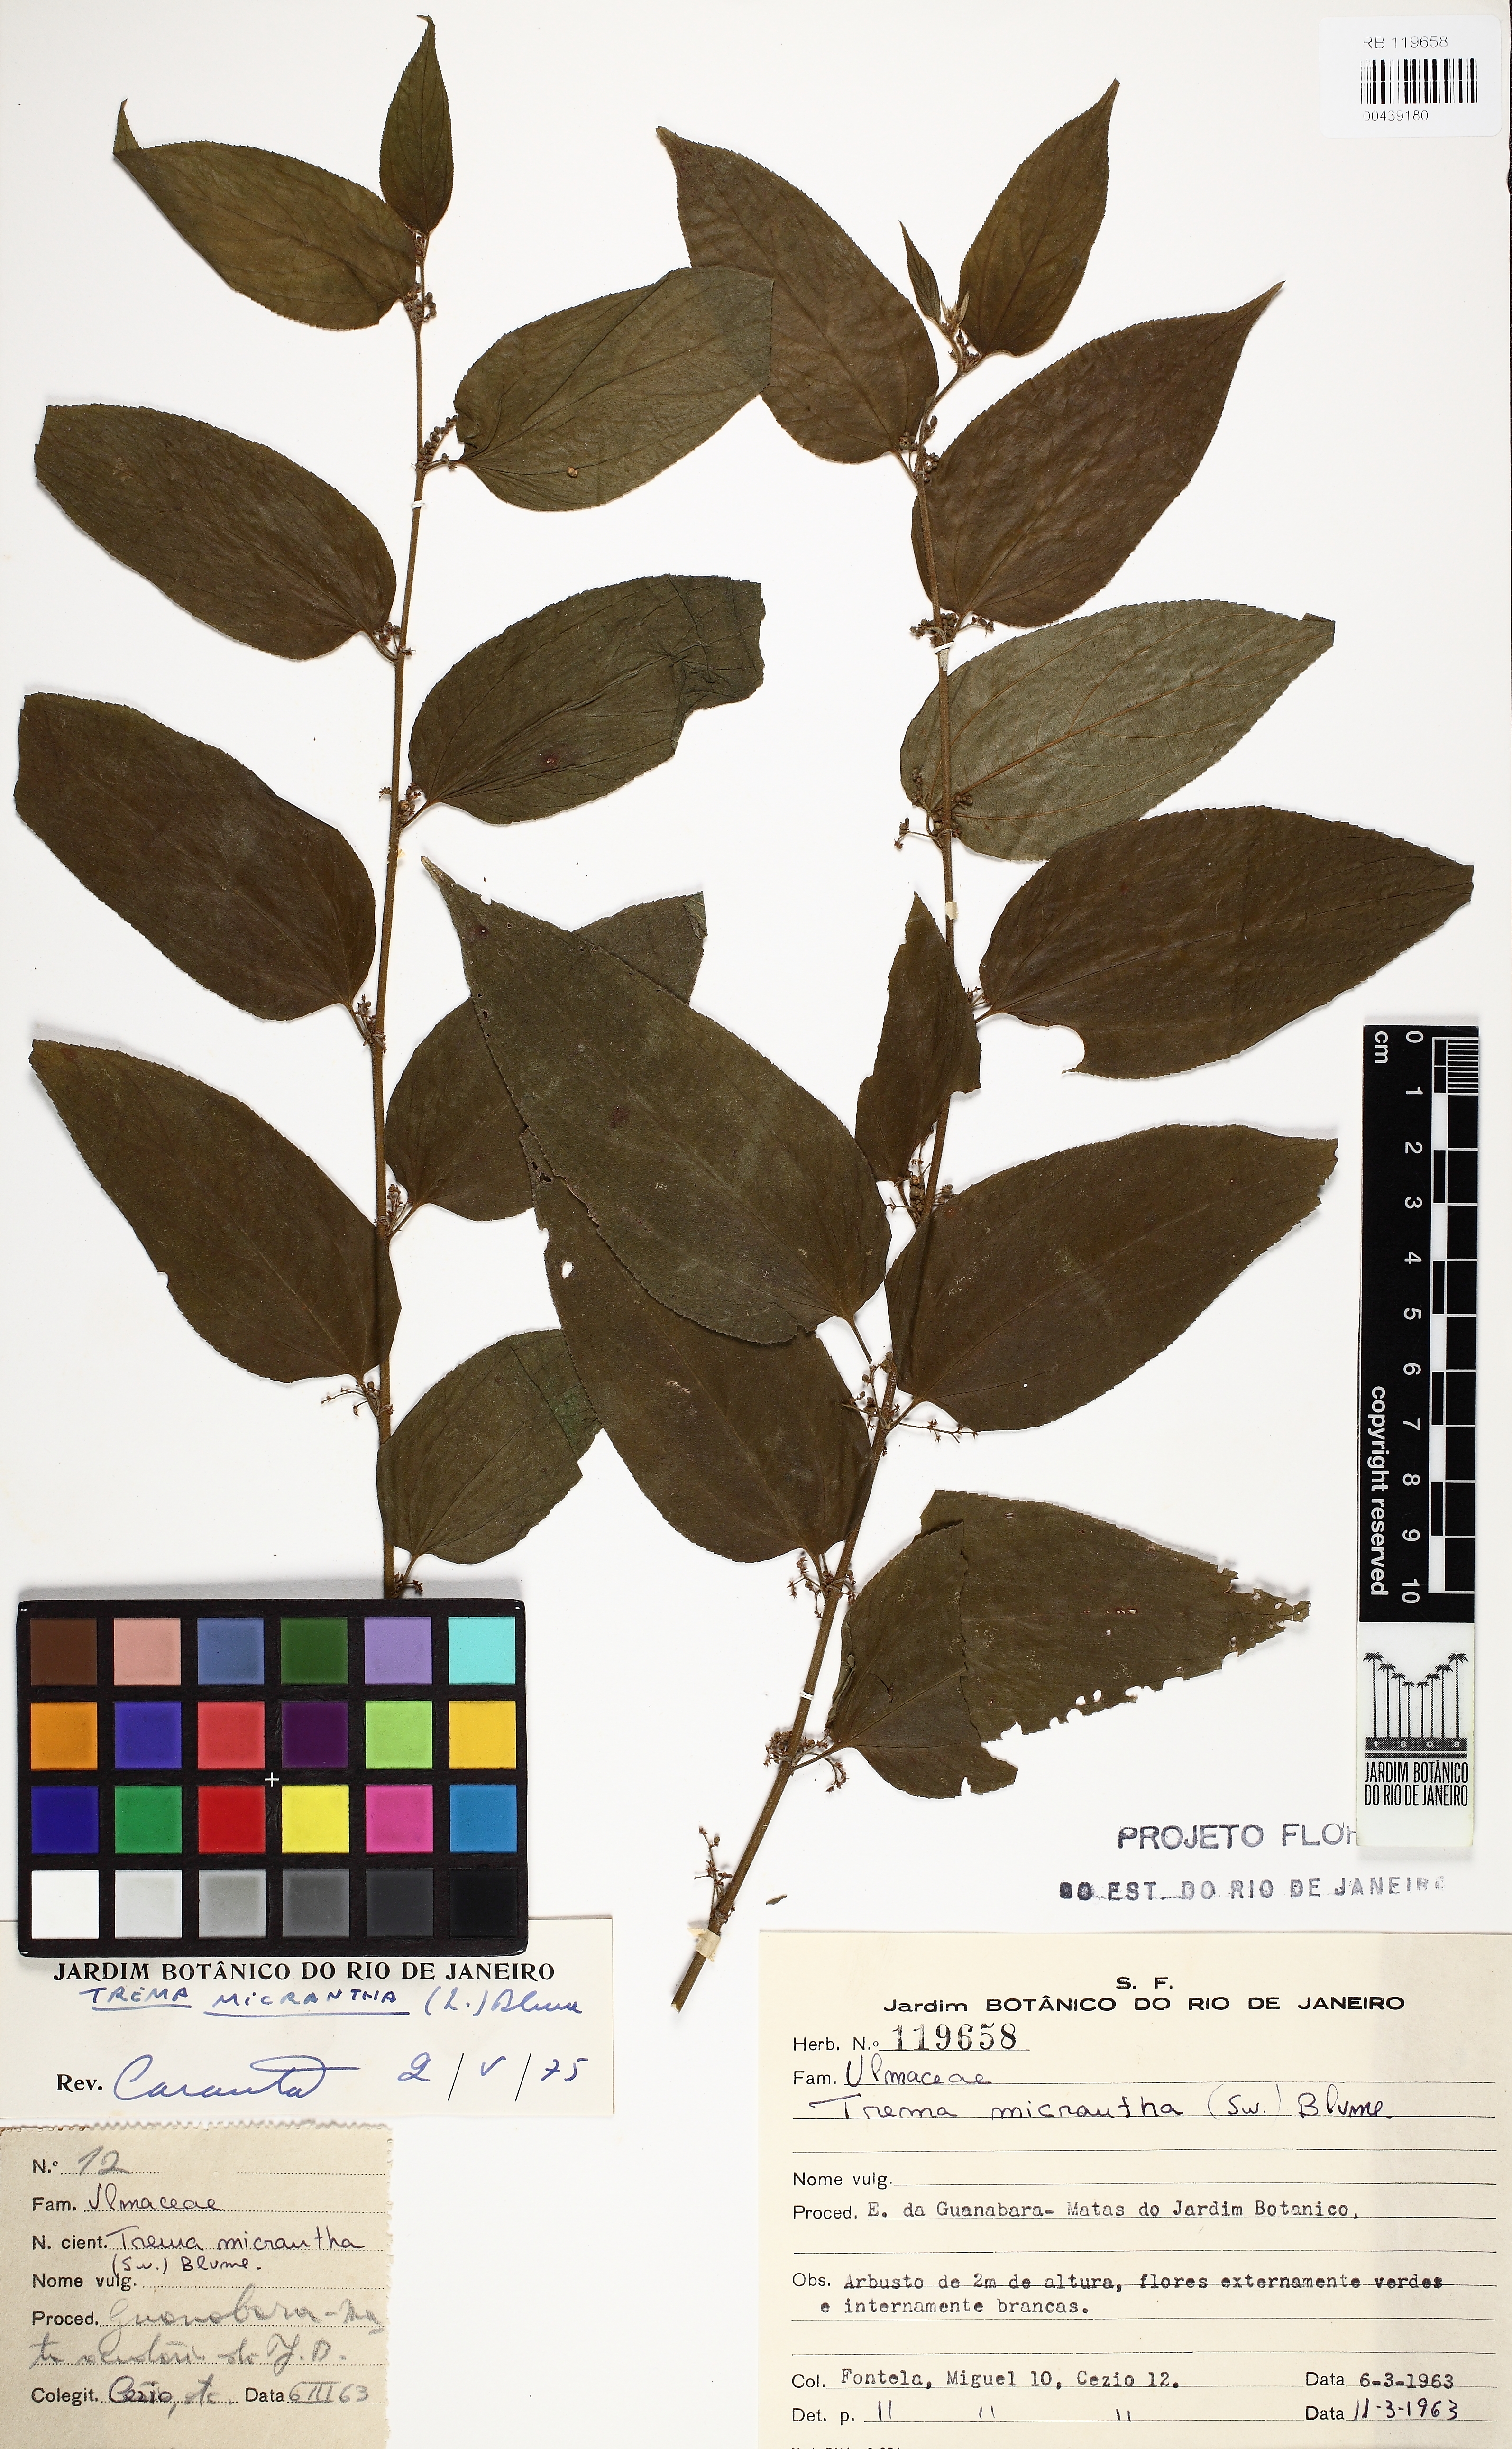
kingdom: Plantae
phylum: Tracheophyta
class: Magnoliopsida
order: Rosales
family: Cannabaceae
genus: Trema
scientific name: Trema micranthum
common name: Jamaican nettletree
